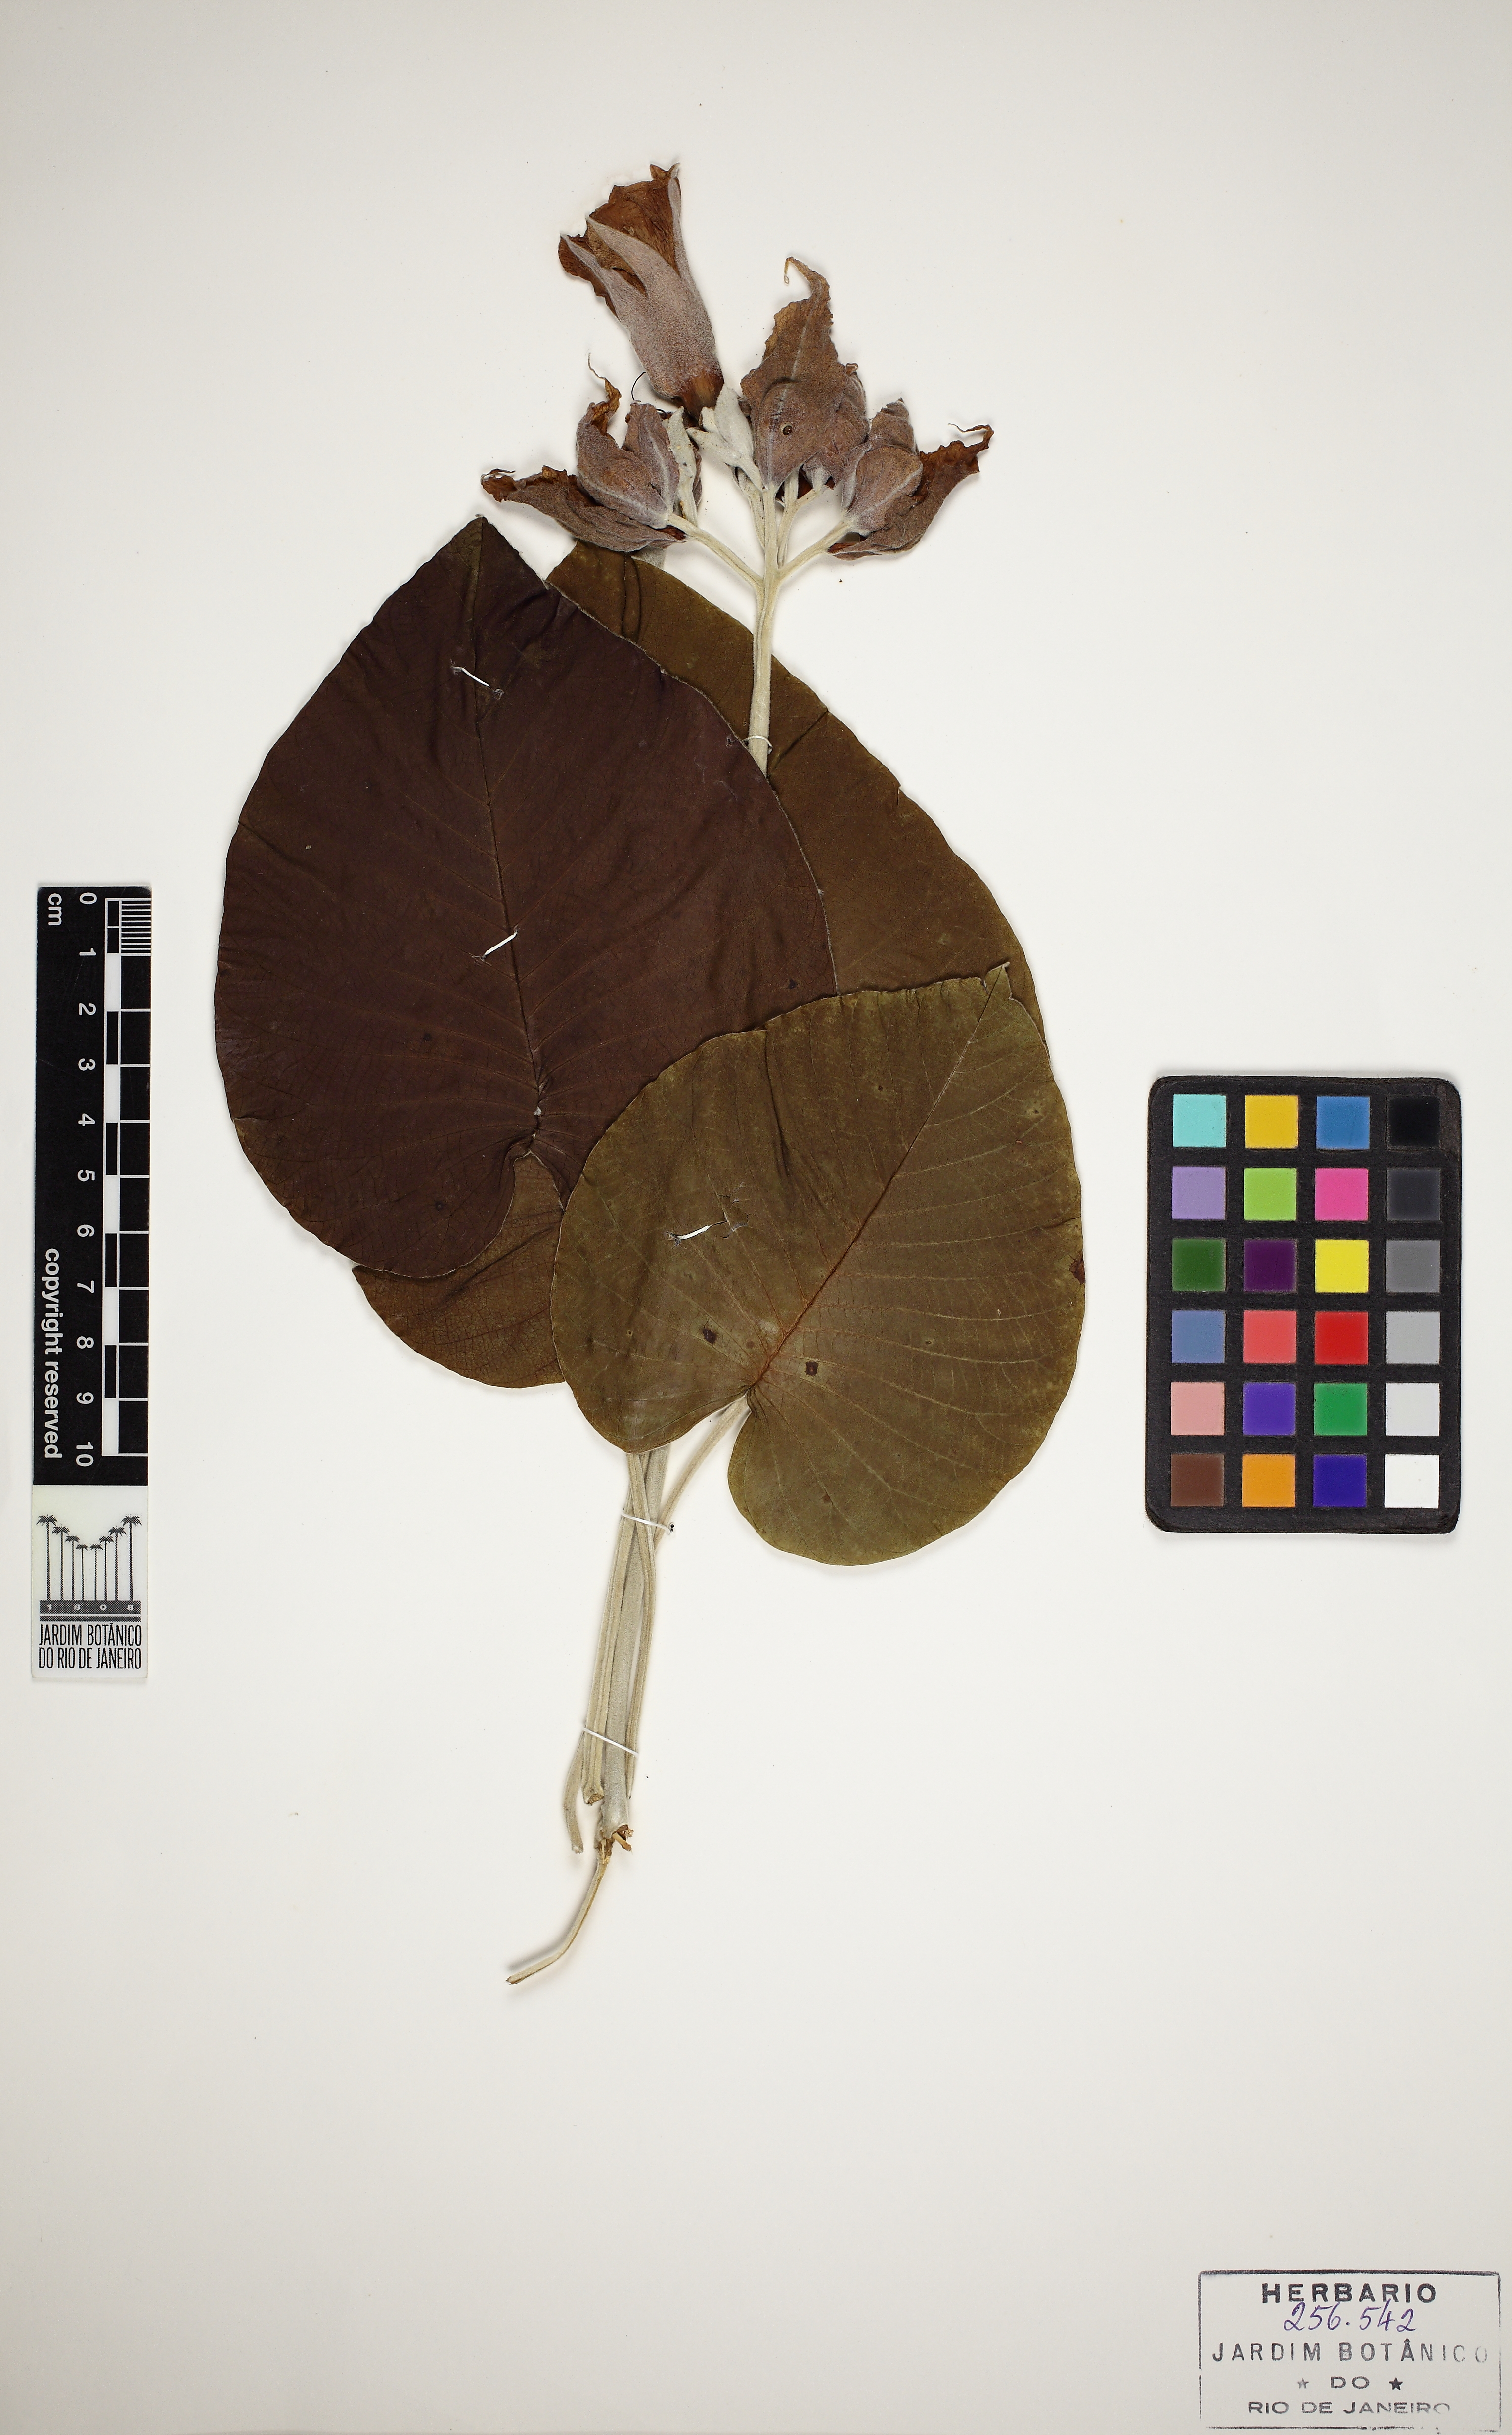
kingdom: Plantae
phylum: Tracheophyta
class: Magnoliopsida
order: Solanales
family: Convolvulaceae
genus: Argyreia
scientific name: Argyreia nervosa
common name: Elephant creeper
